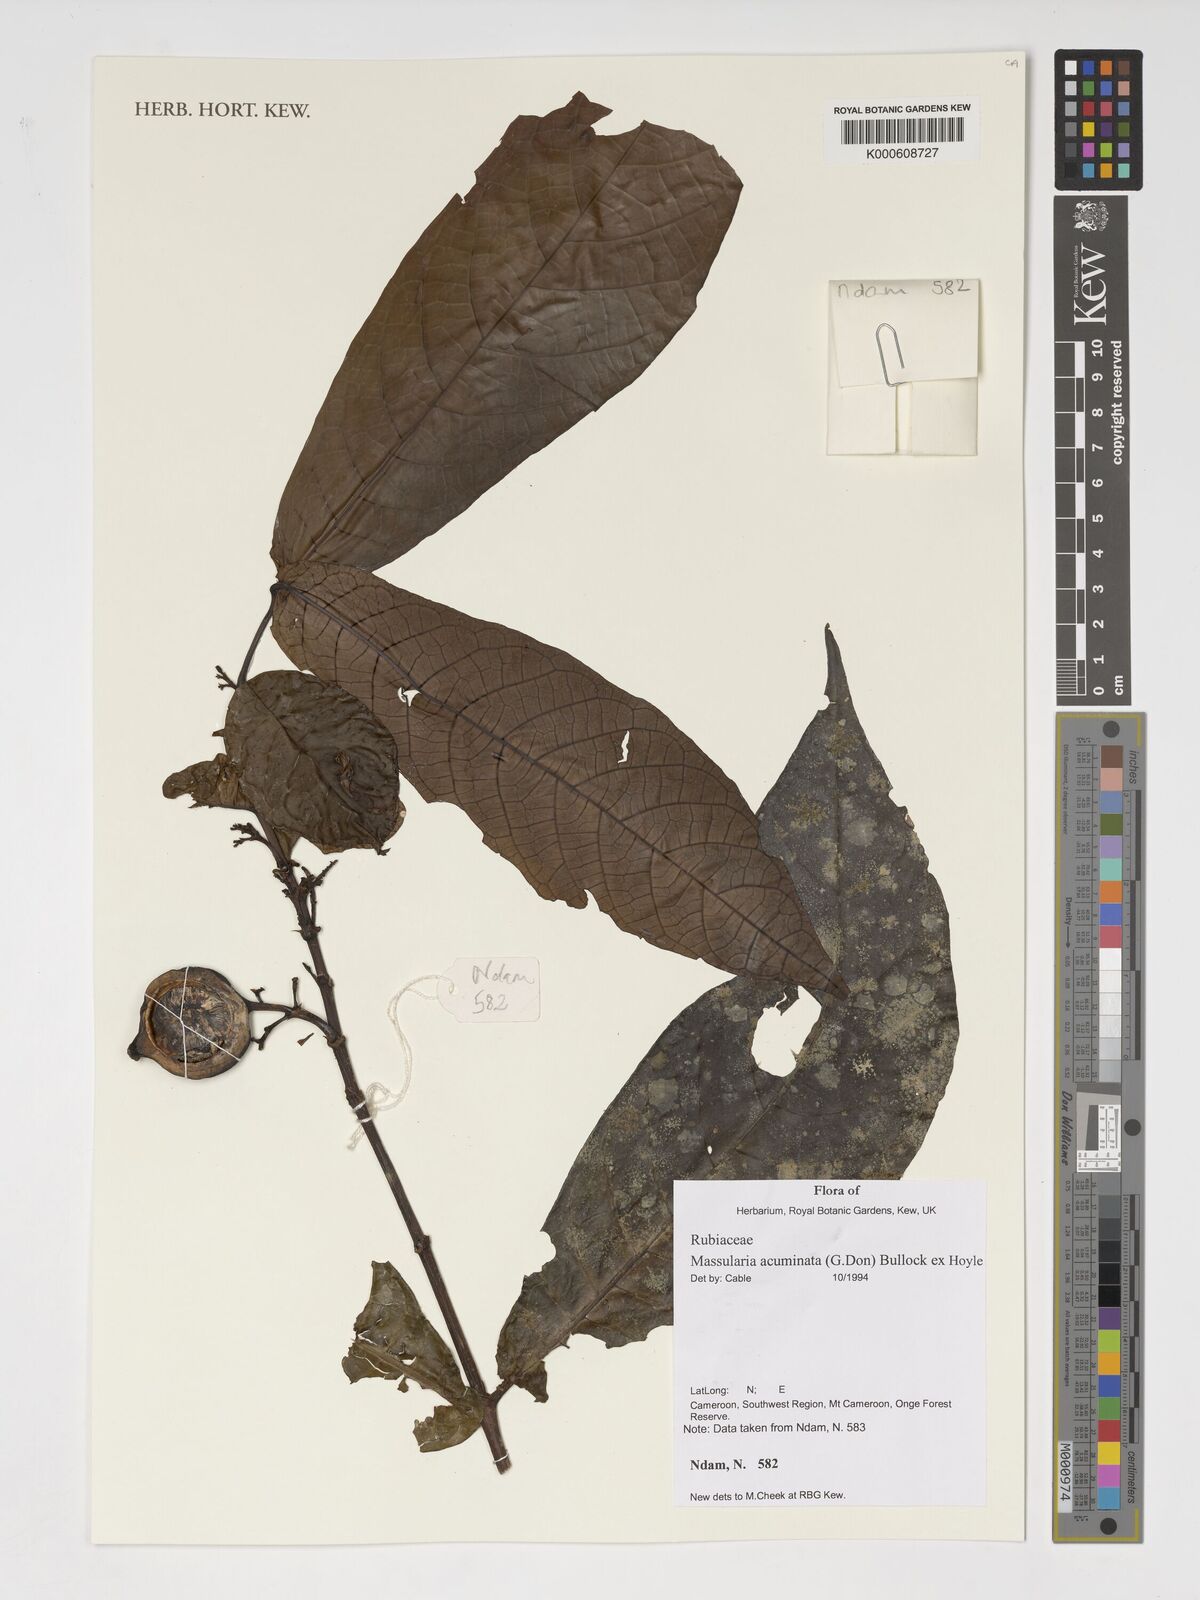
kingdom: Plantae
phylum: Tracheophyta
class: Magnoliopsida
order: Gentianales
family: Rubiaceae
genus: Massularia
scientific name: Massularia acuminata
